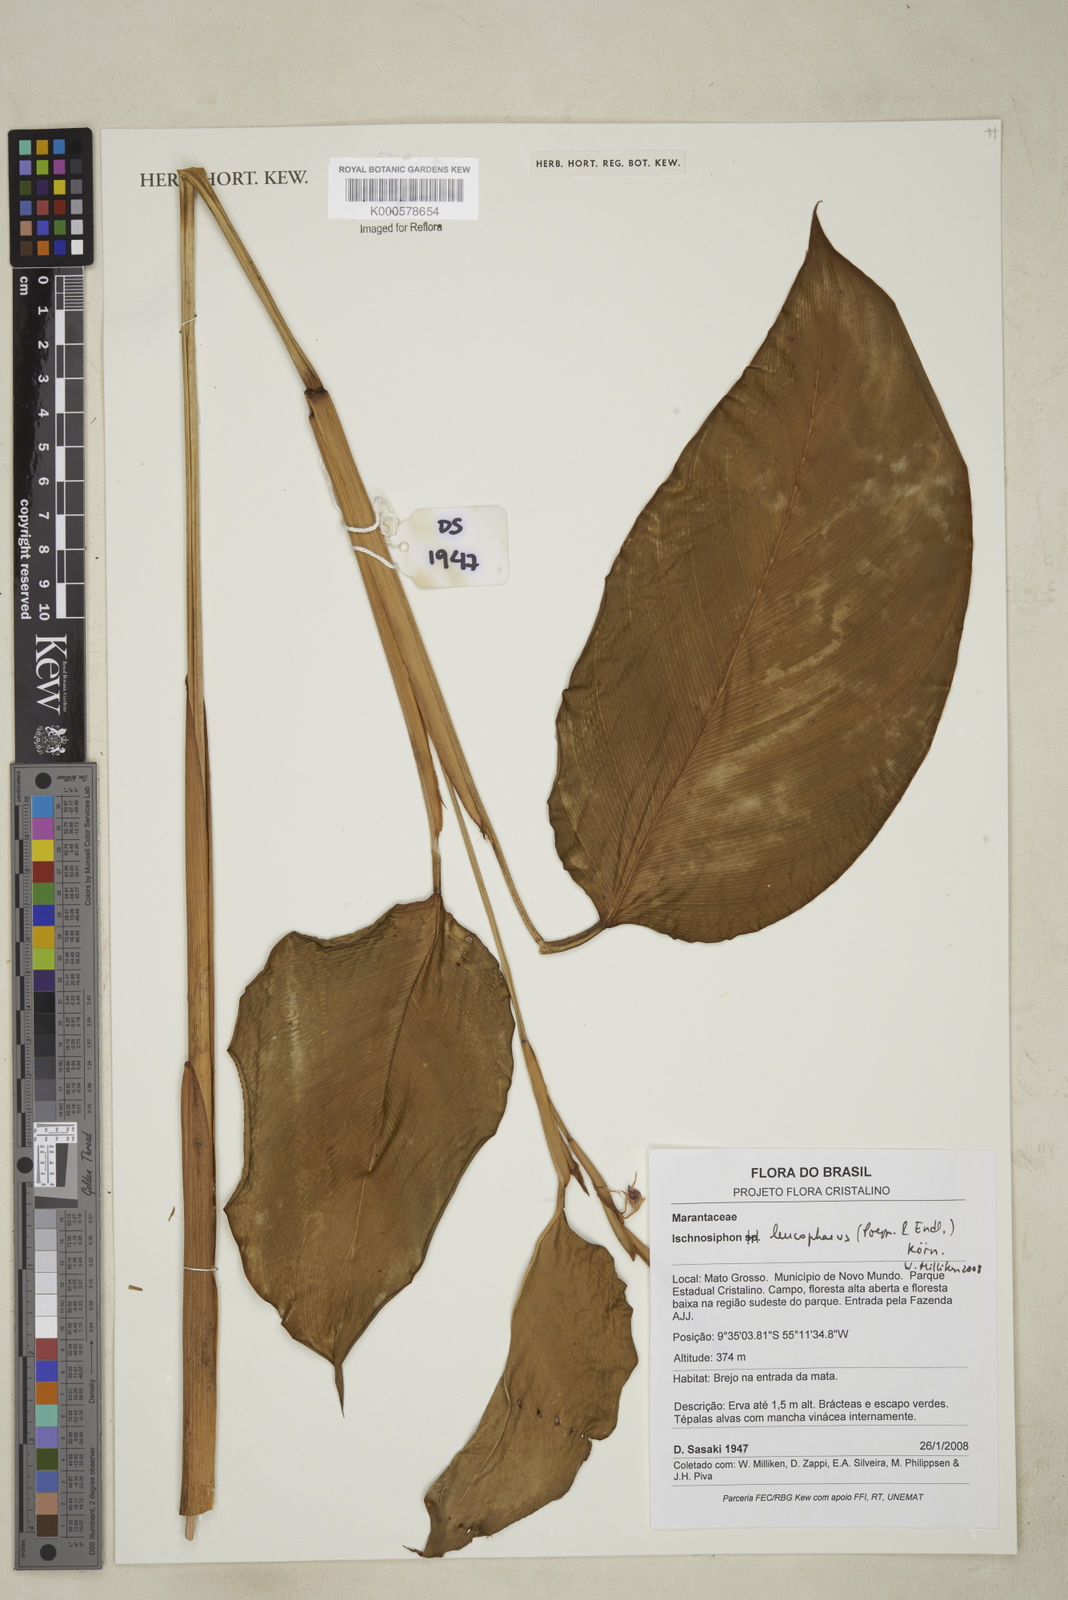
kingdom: Plantae
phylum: Tracheophyta
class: Liliopsida
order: Zingiberales
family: Marantaceae
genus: Ischnosiphon
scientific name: Ischnosiphon
